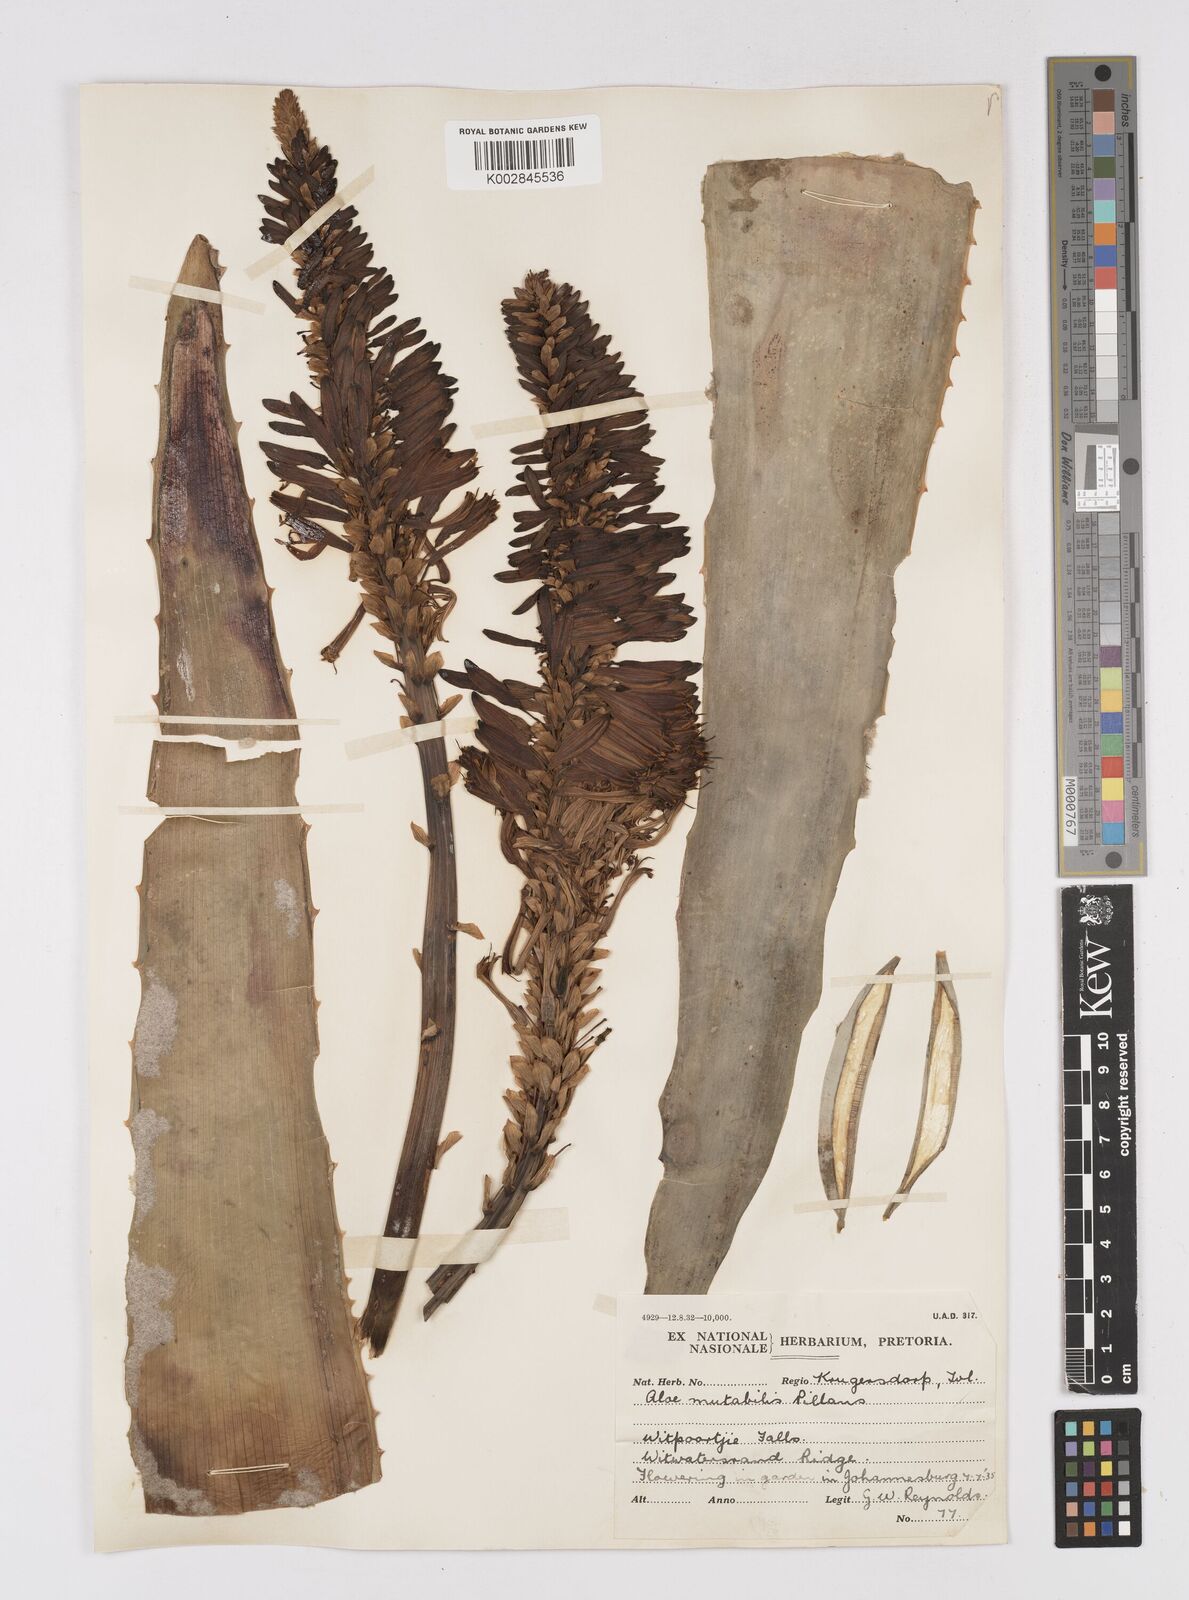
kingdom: Plantae
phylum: Tracheophyta
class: Liliopsida
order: Asparagales
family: Asphodelaceae
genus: Aloe
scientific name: Aloe mutabilis
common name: Blue krantz aloe
